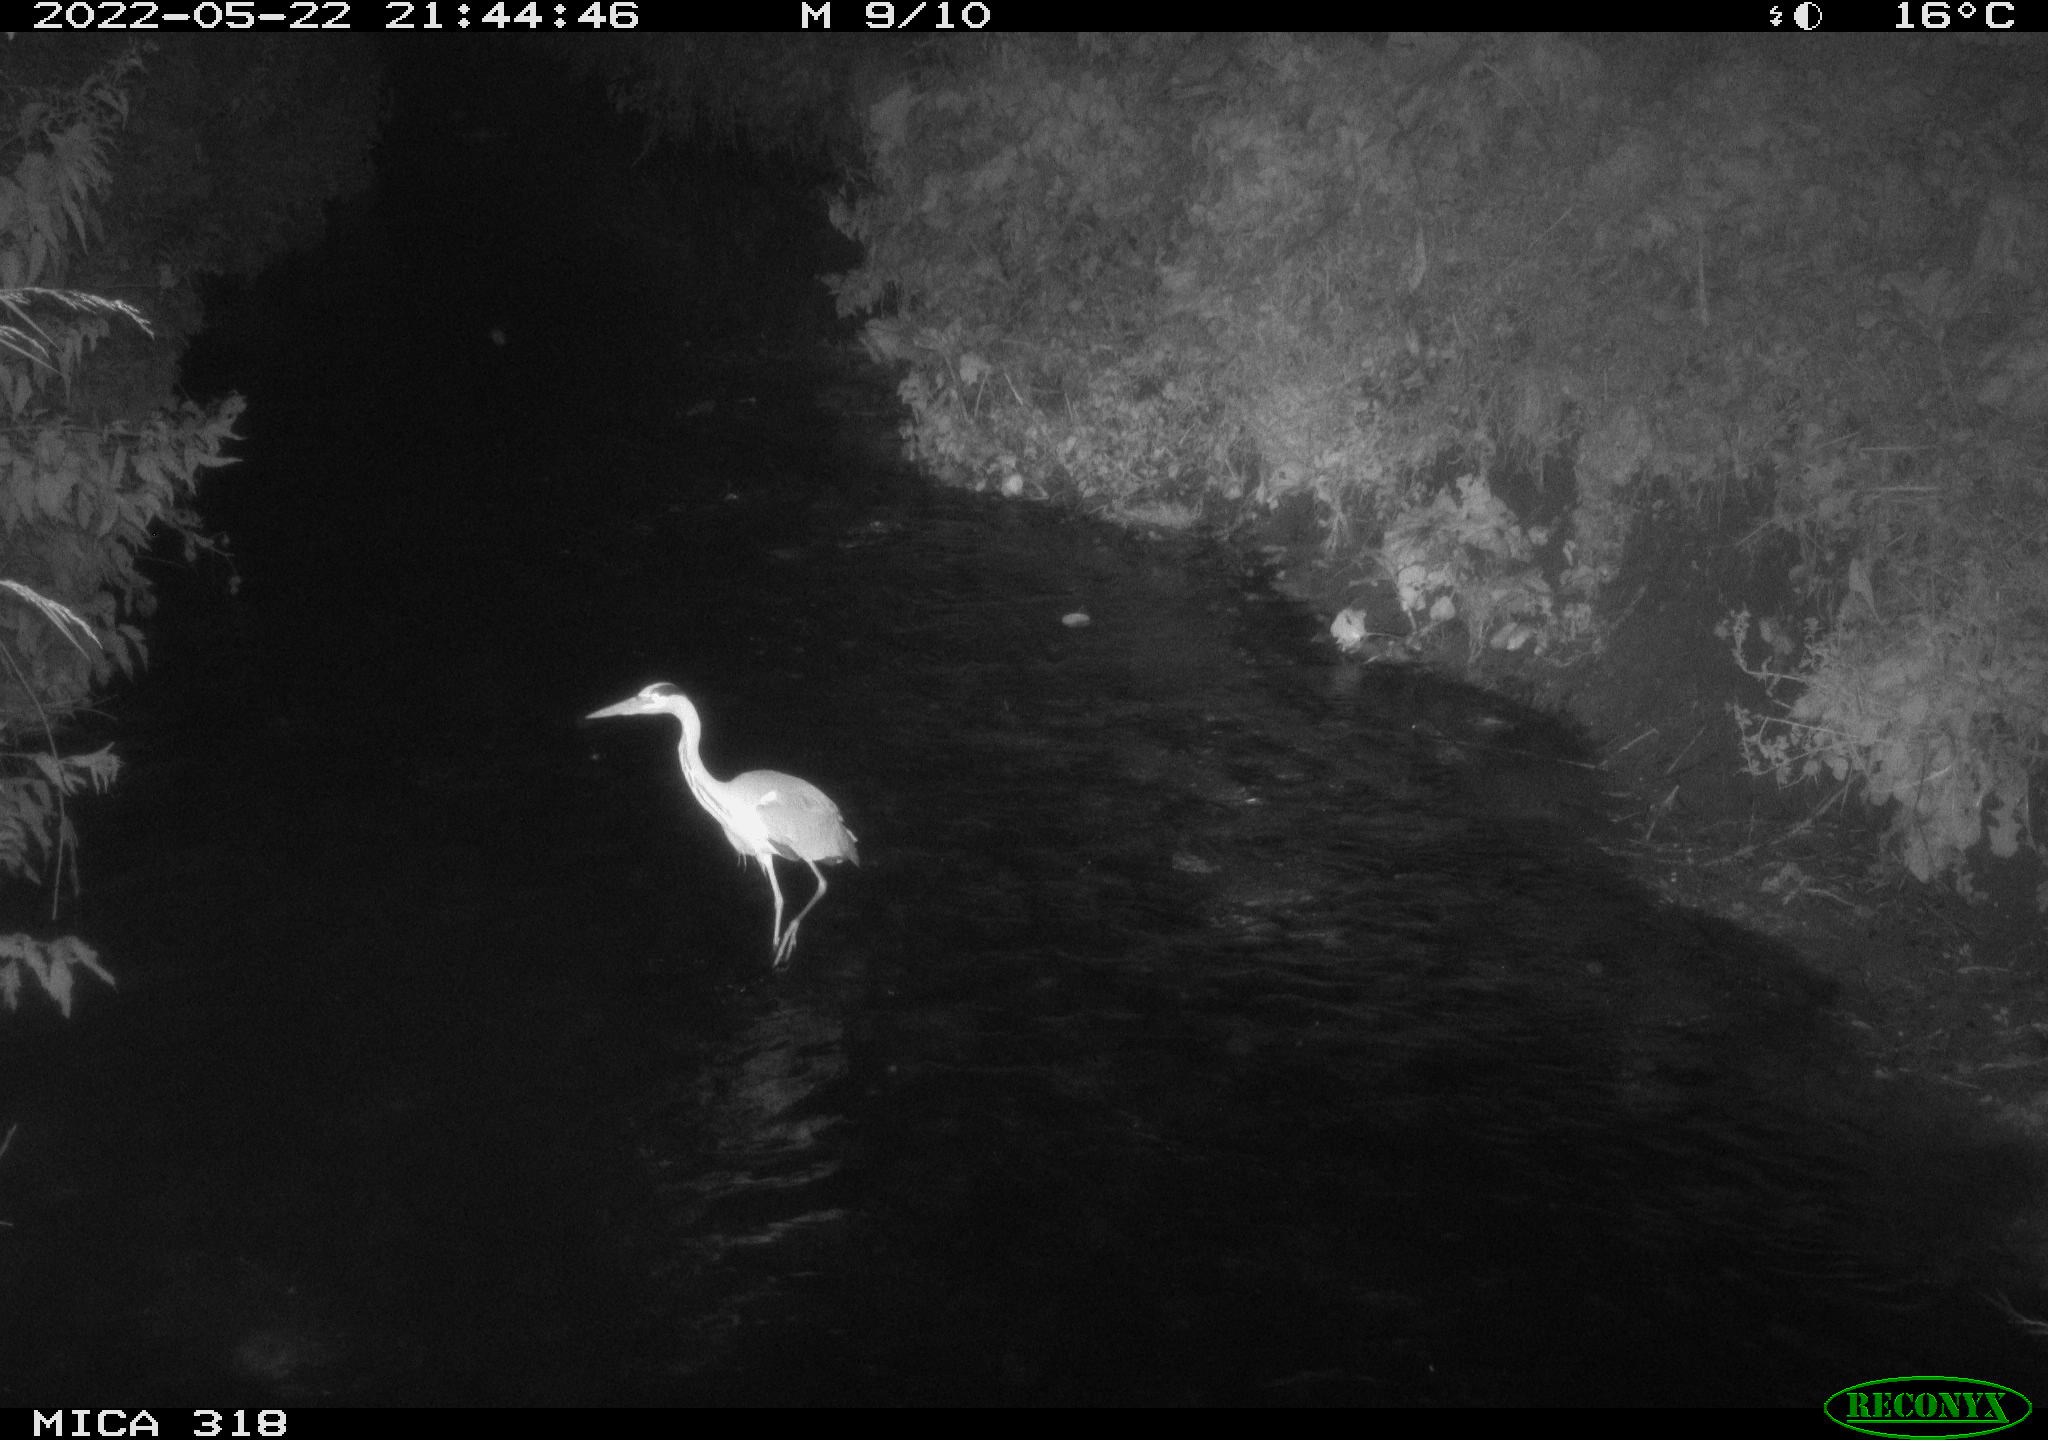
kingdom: Animalia
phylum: Chordata
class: Aves
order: Pelecaniformes
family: Ardeidae
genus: Ardea
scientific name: Ardea cinerea
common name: Grey heron
